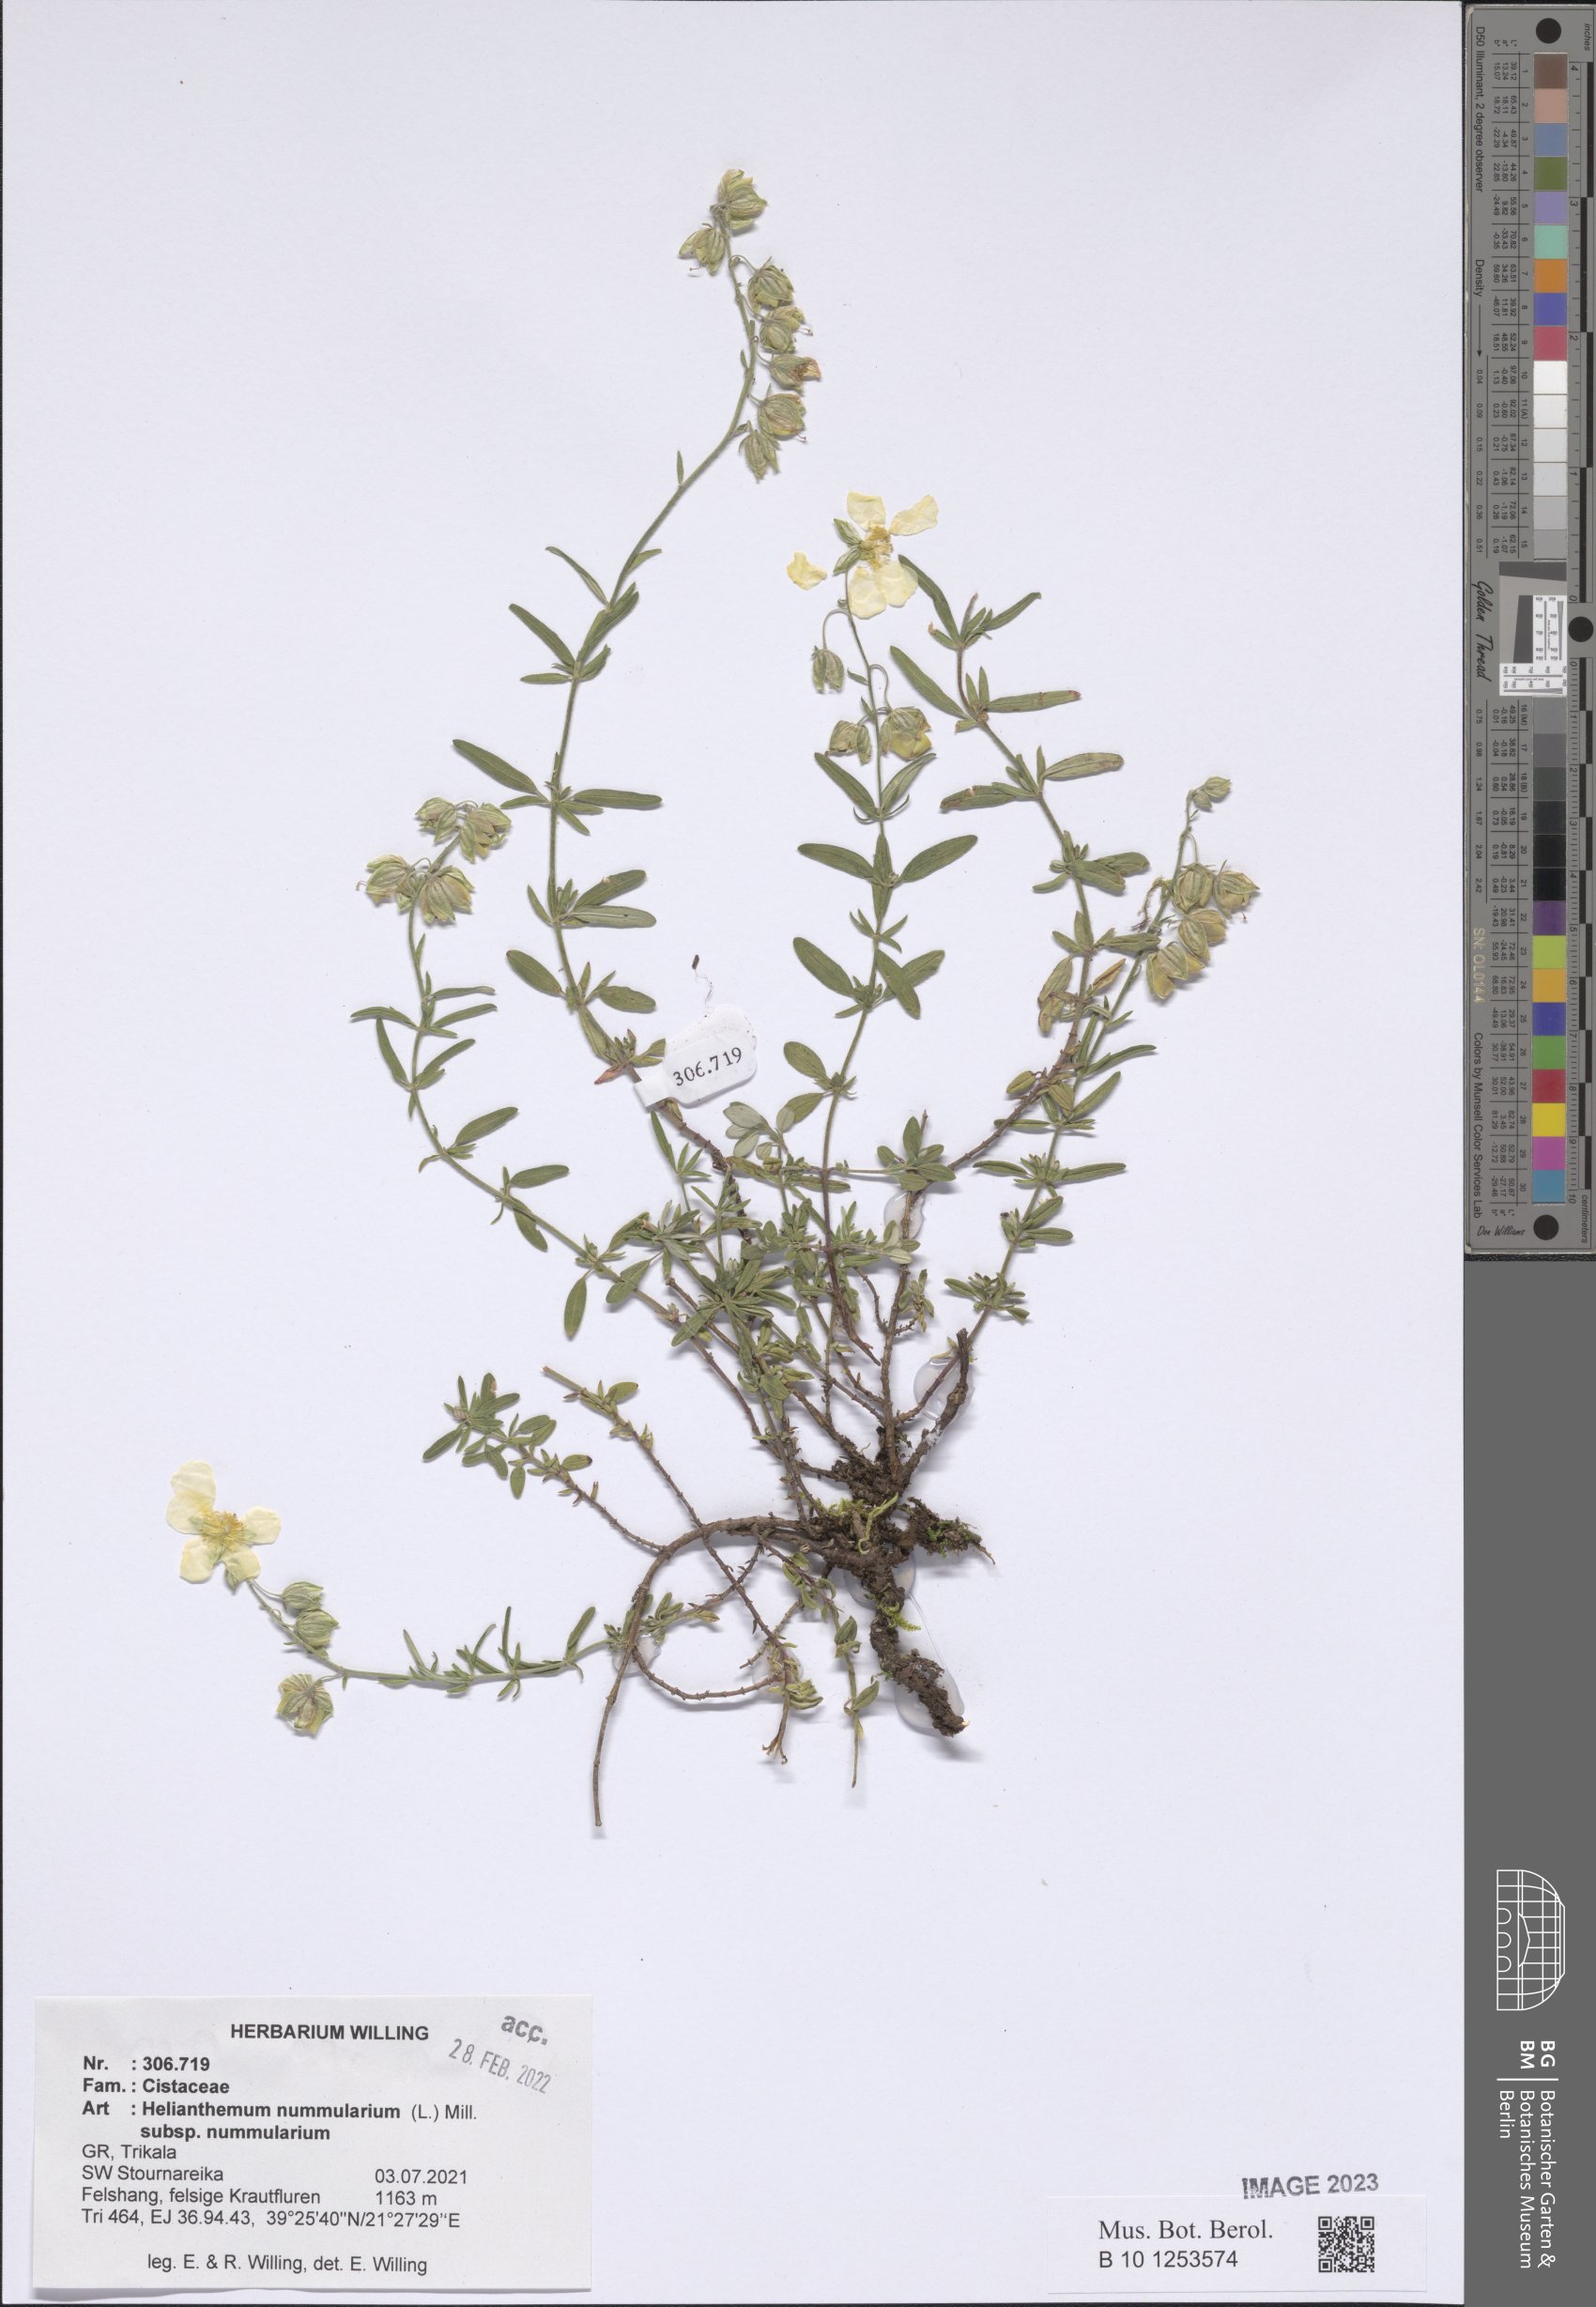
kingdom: Plantae
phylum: Tracheophyta
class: Magnoliopsida
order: Malvales
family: Cistaceae
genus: Helianthemum
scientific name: Helianthemum nummularium
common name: Common rock-rose
